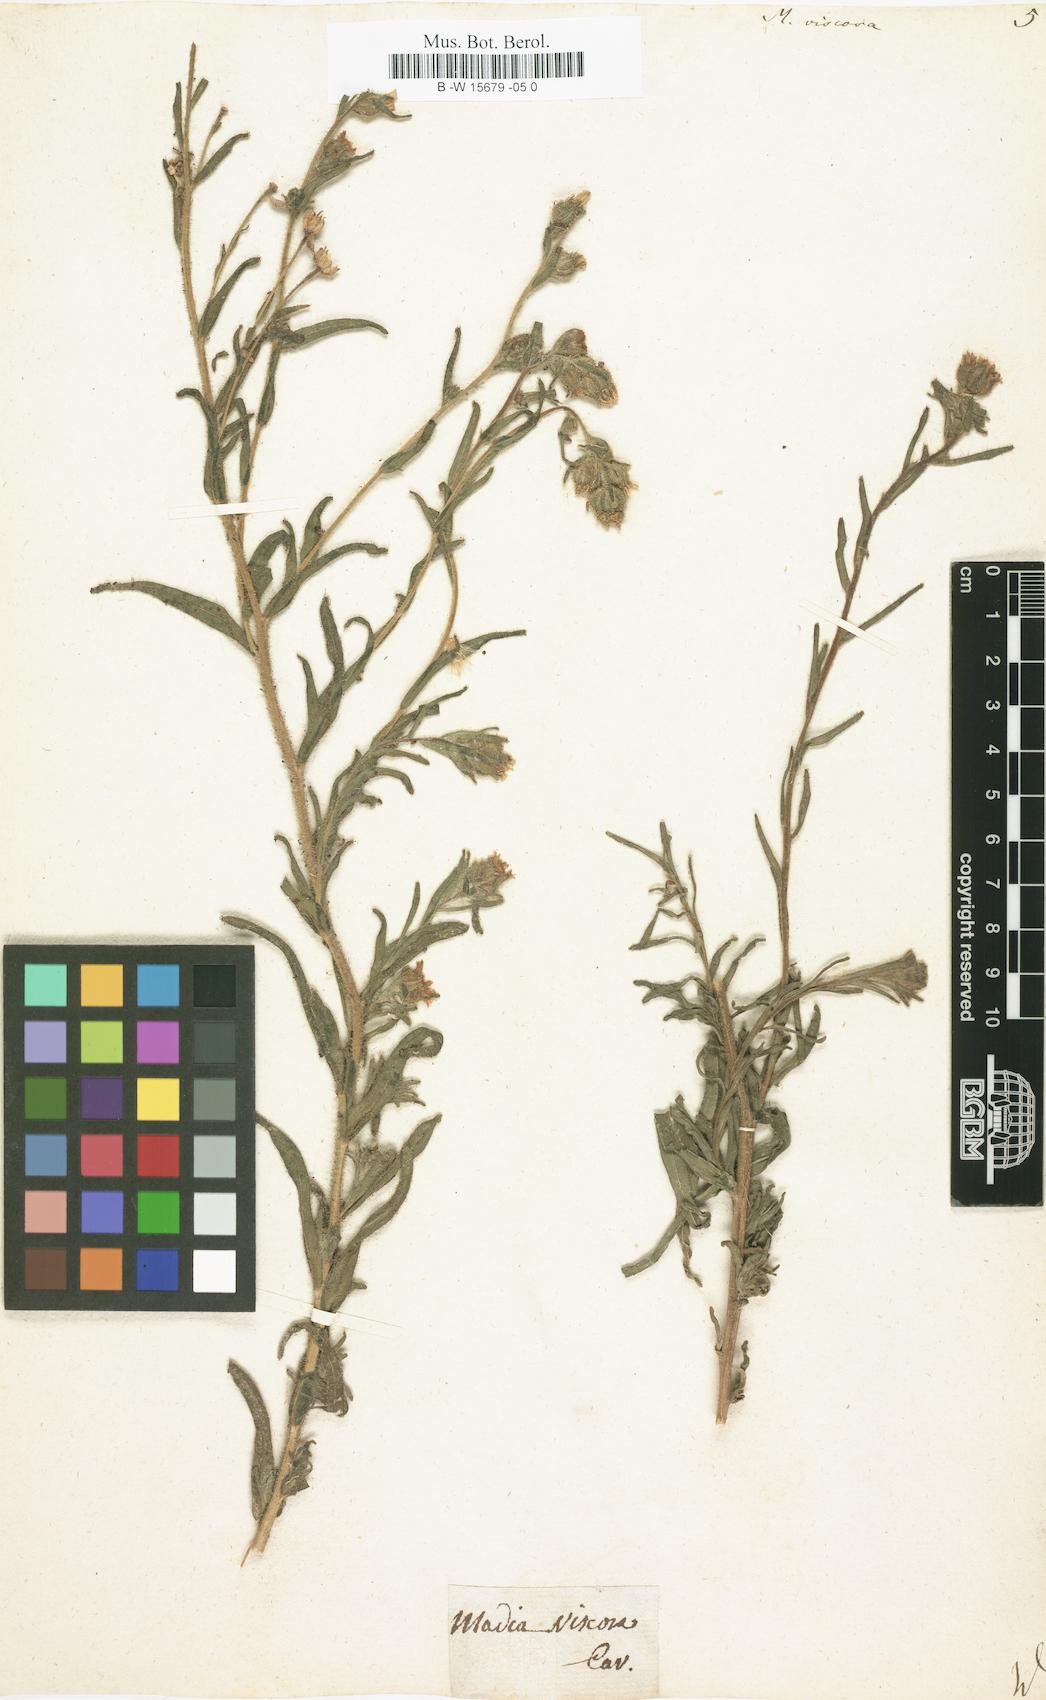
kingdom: Plantae
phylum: Tracheophyta
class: Magnoliopsida
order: Asterales
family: Asteraceae
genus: Madia
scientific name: Madia sativa
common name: Coast tarweed
